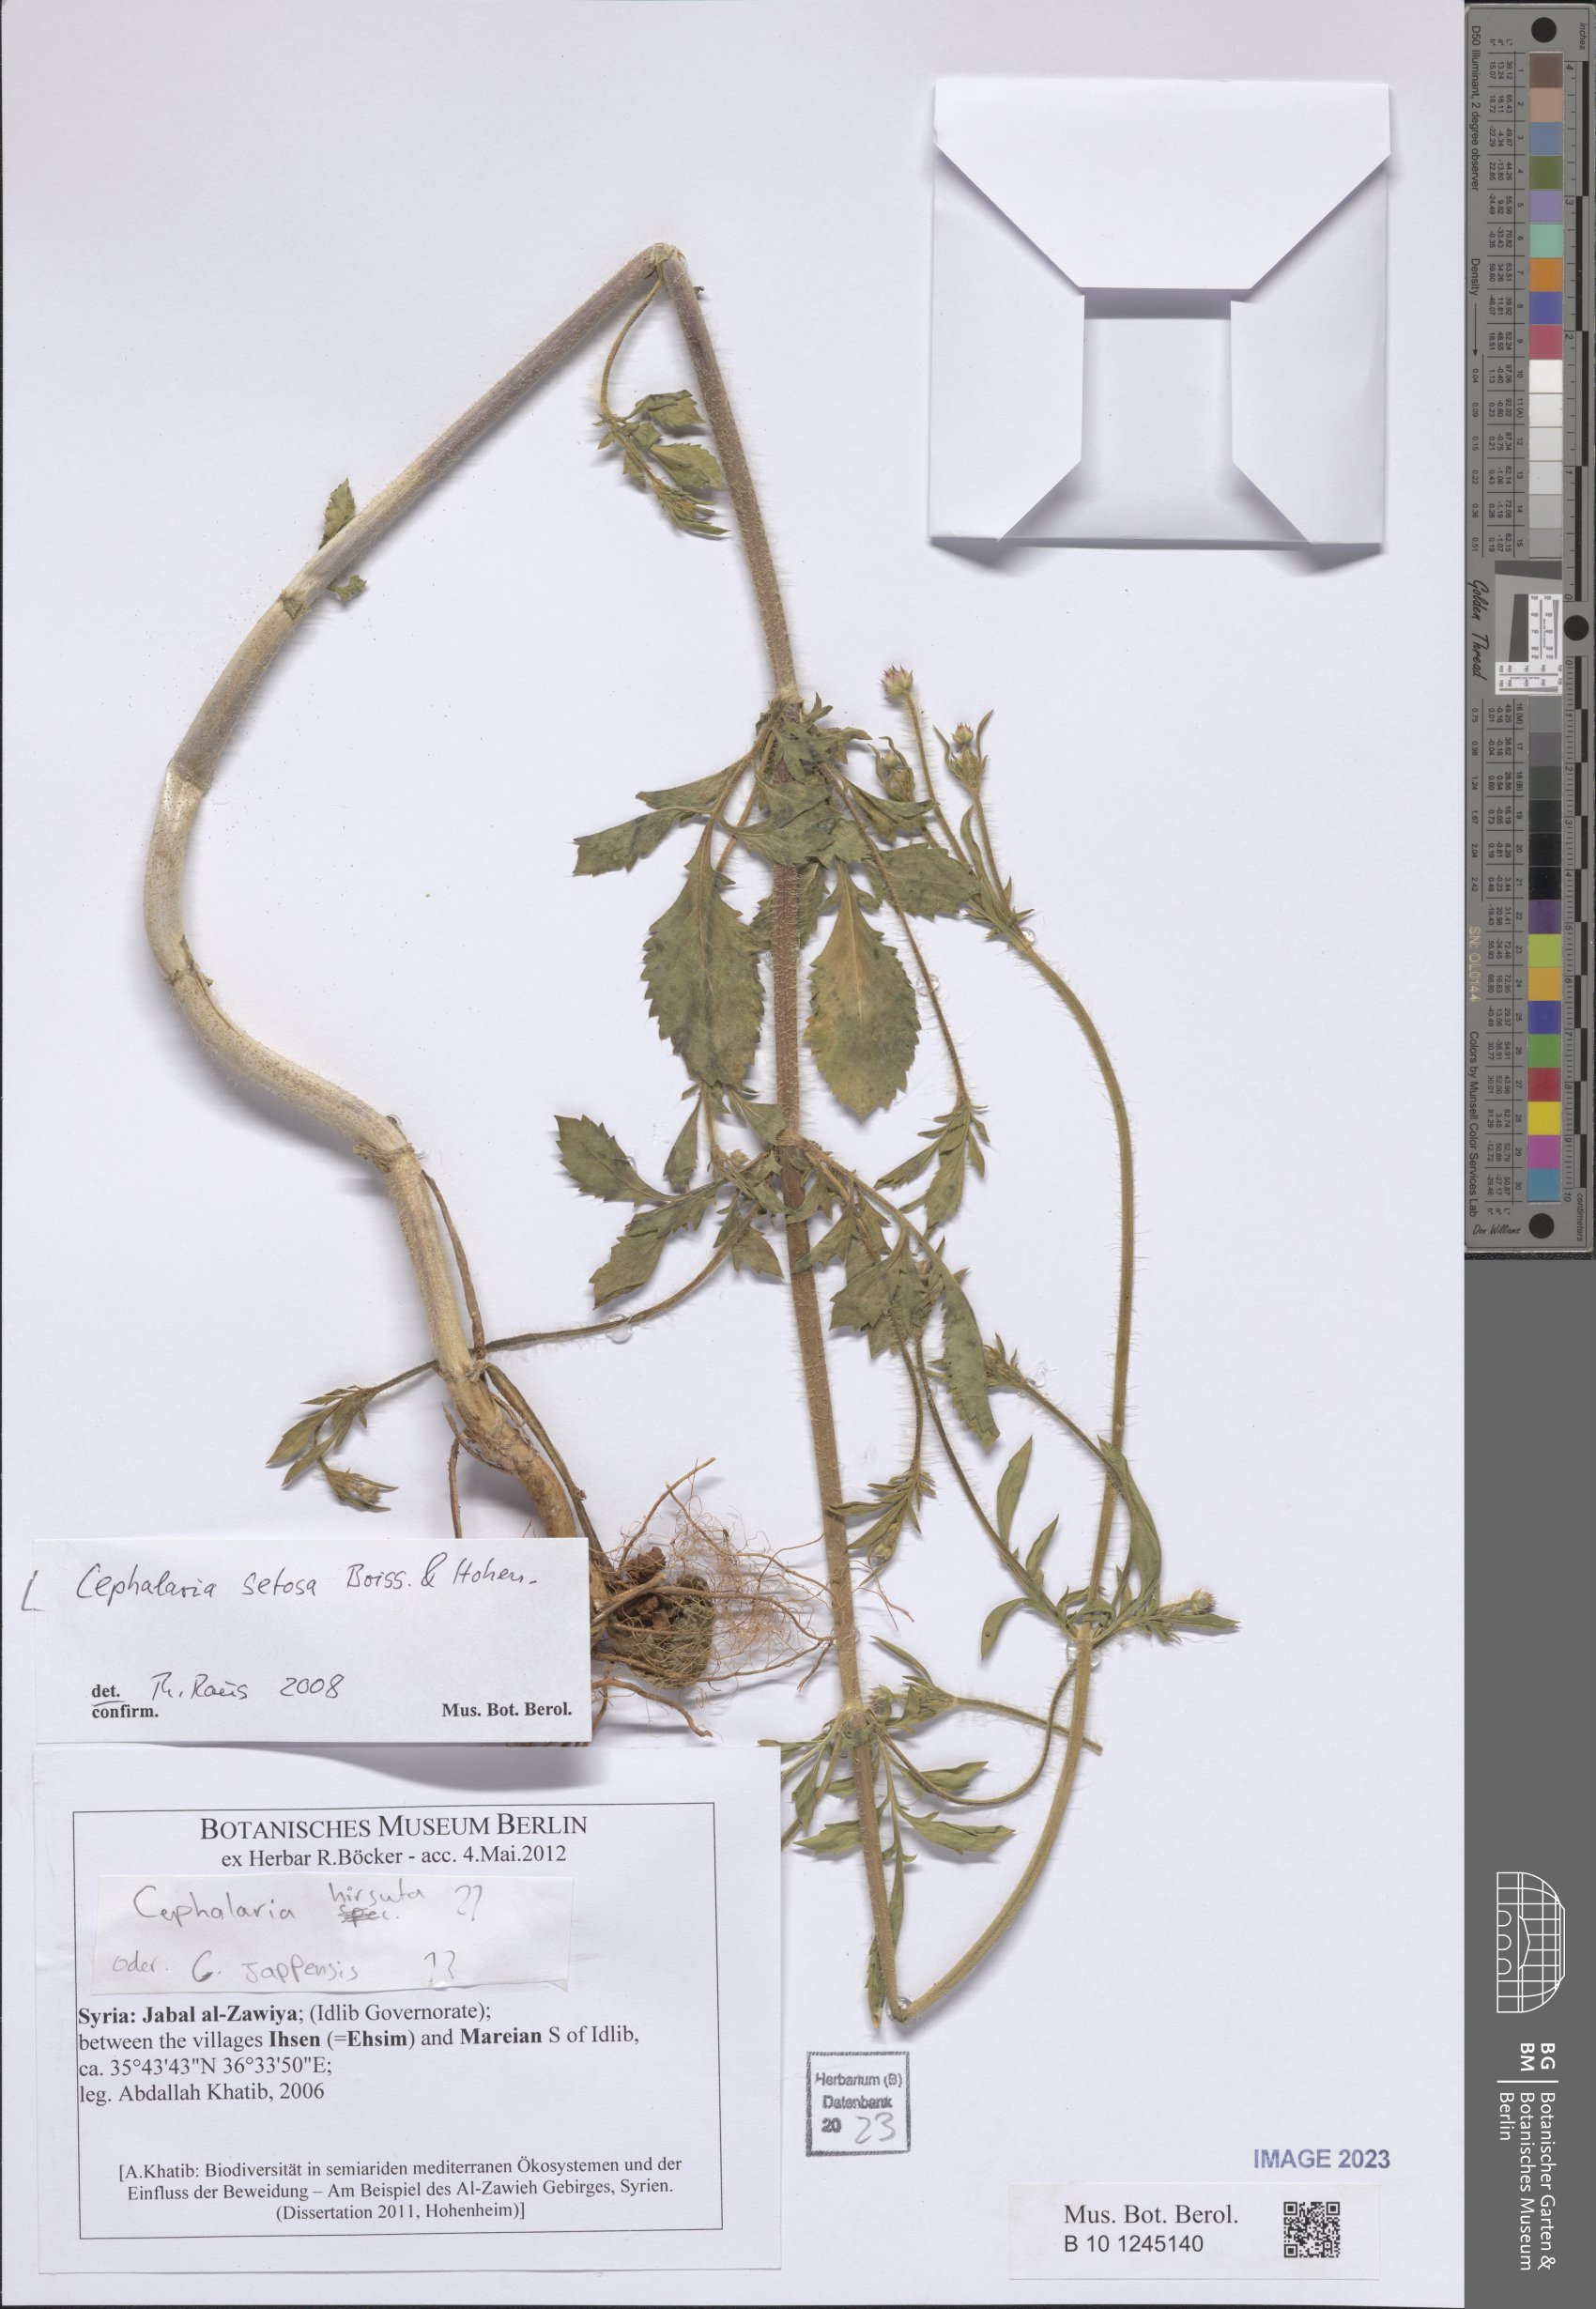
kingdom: Plantae
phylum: Tracheophyta
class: Magnoliopsida
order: Dipsacales
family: Caprifoliaceae
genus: Cephalaria
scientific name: Cephalaria setosa
